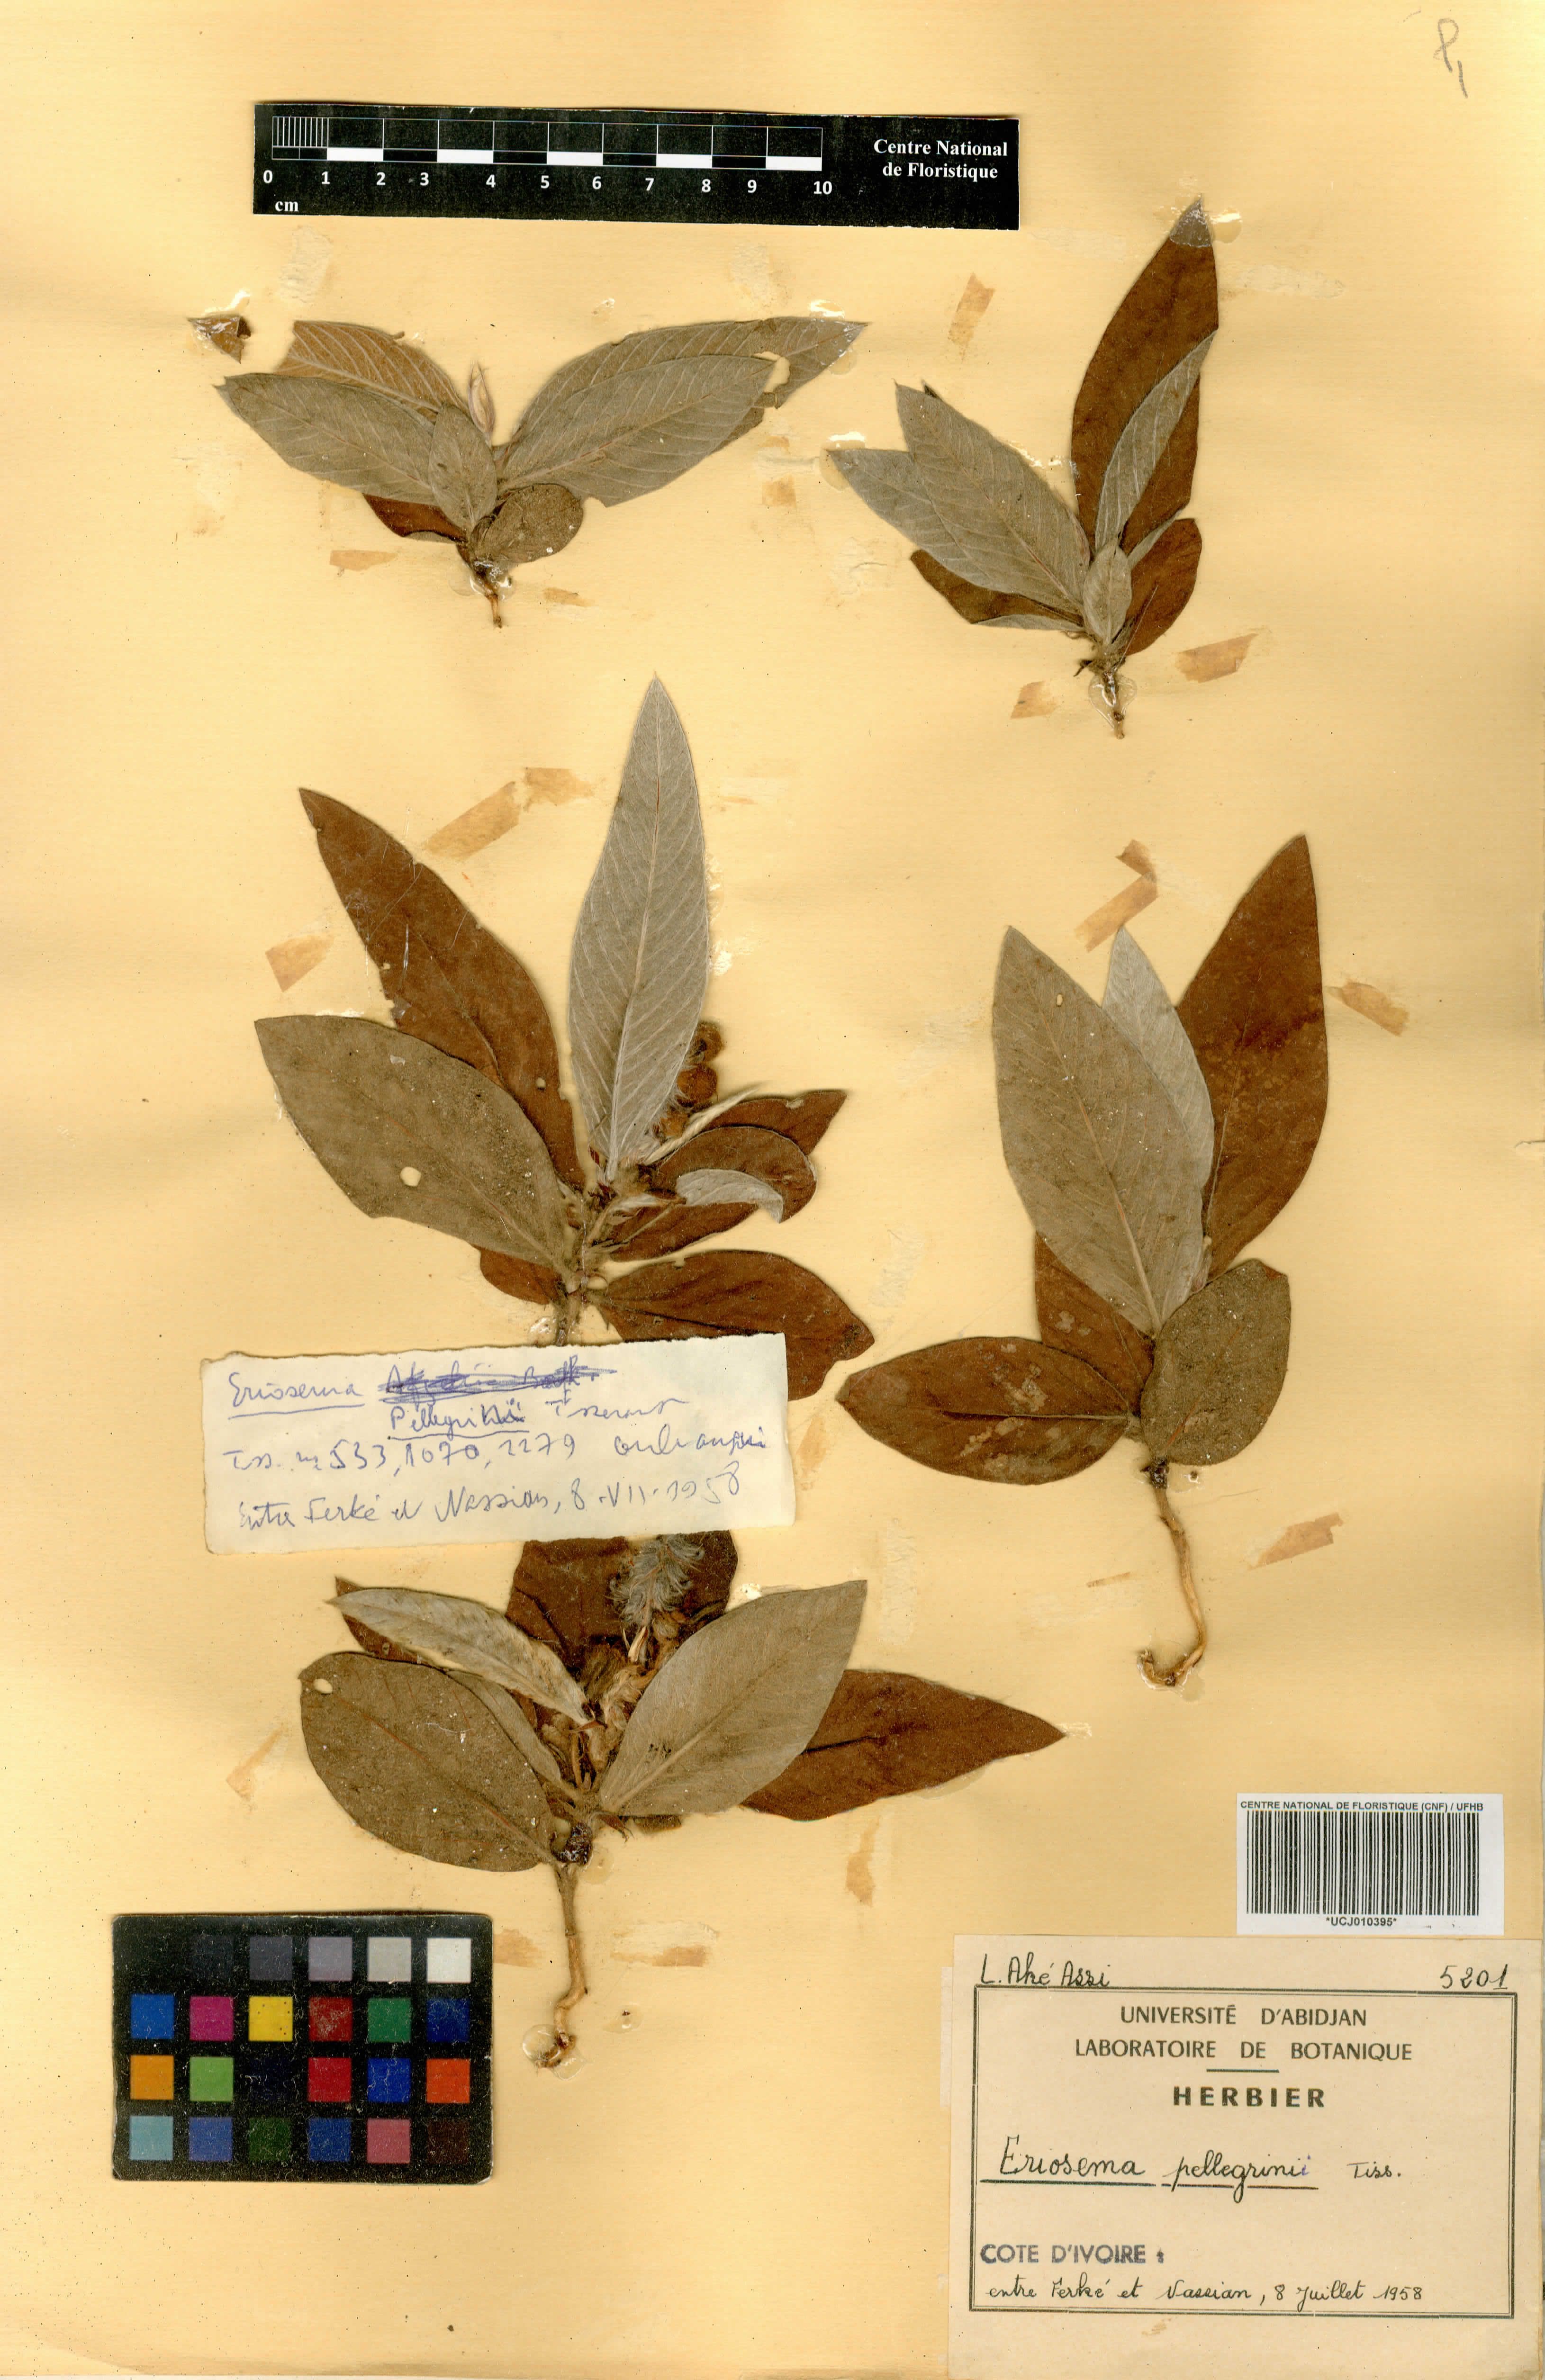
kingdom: Plantae
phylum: Tracheophyta
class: Magnoliopsida
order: Fabales
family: Fabaceae
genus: Eriosema
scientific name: Eriosema pellegrinii
